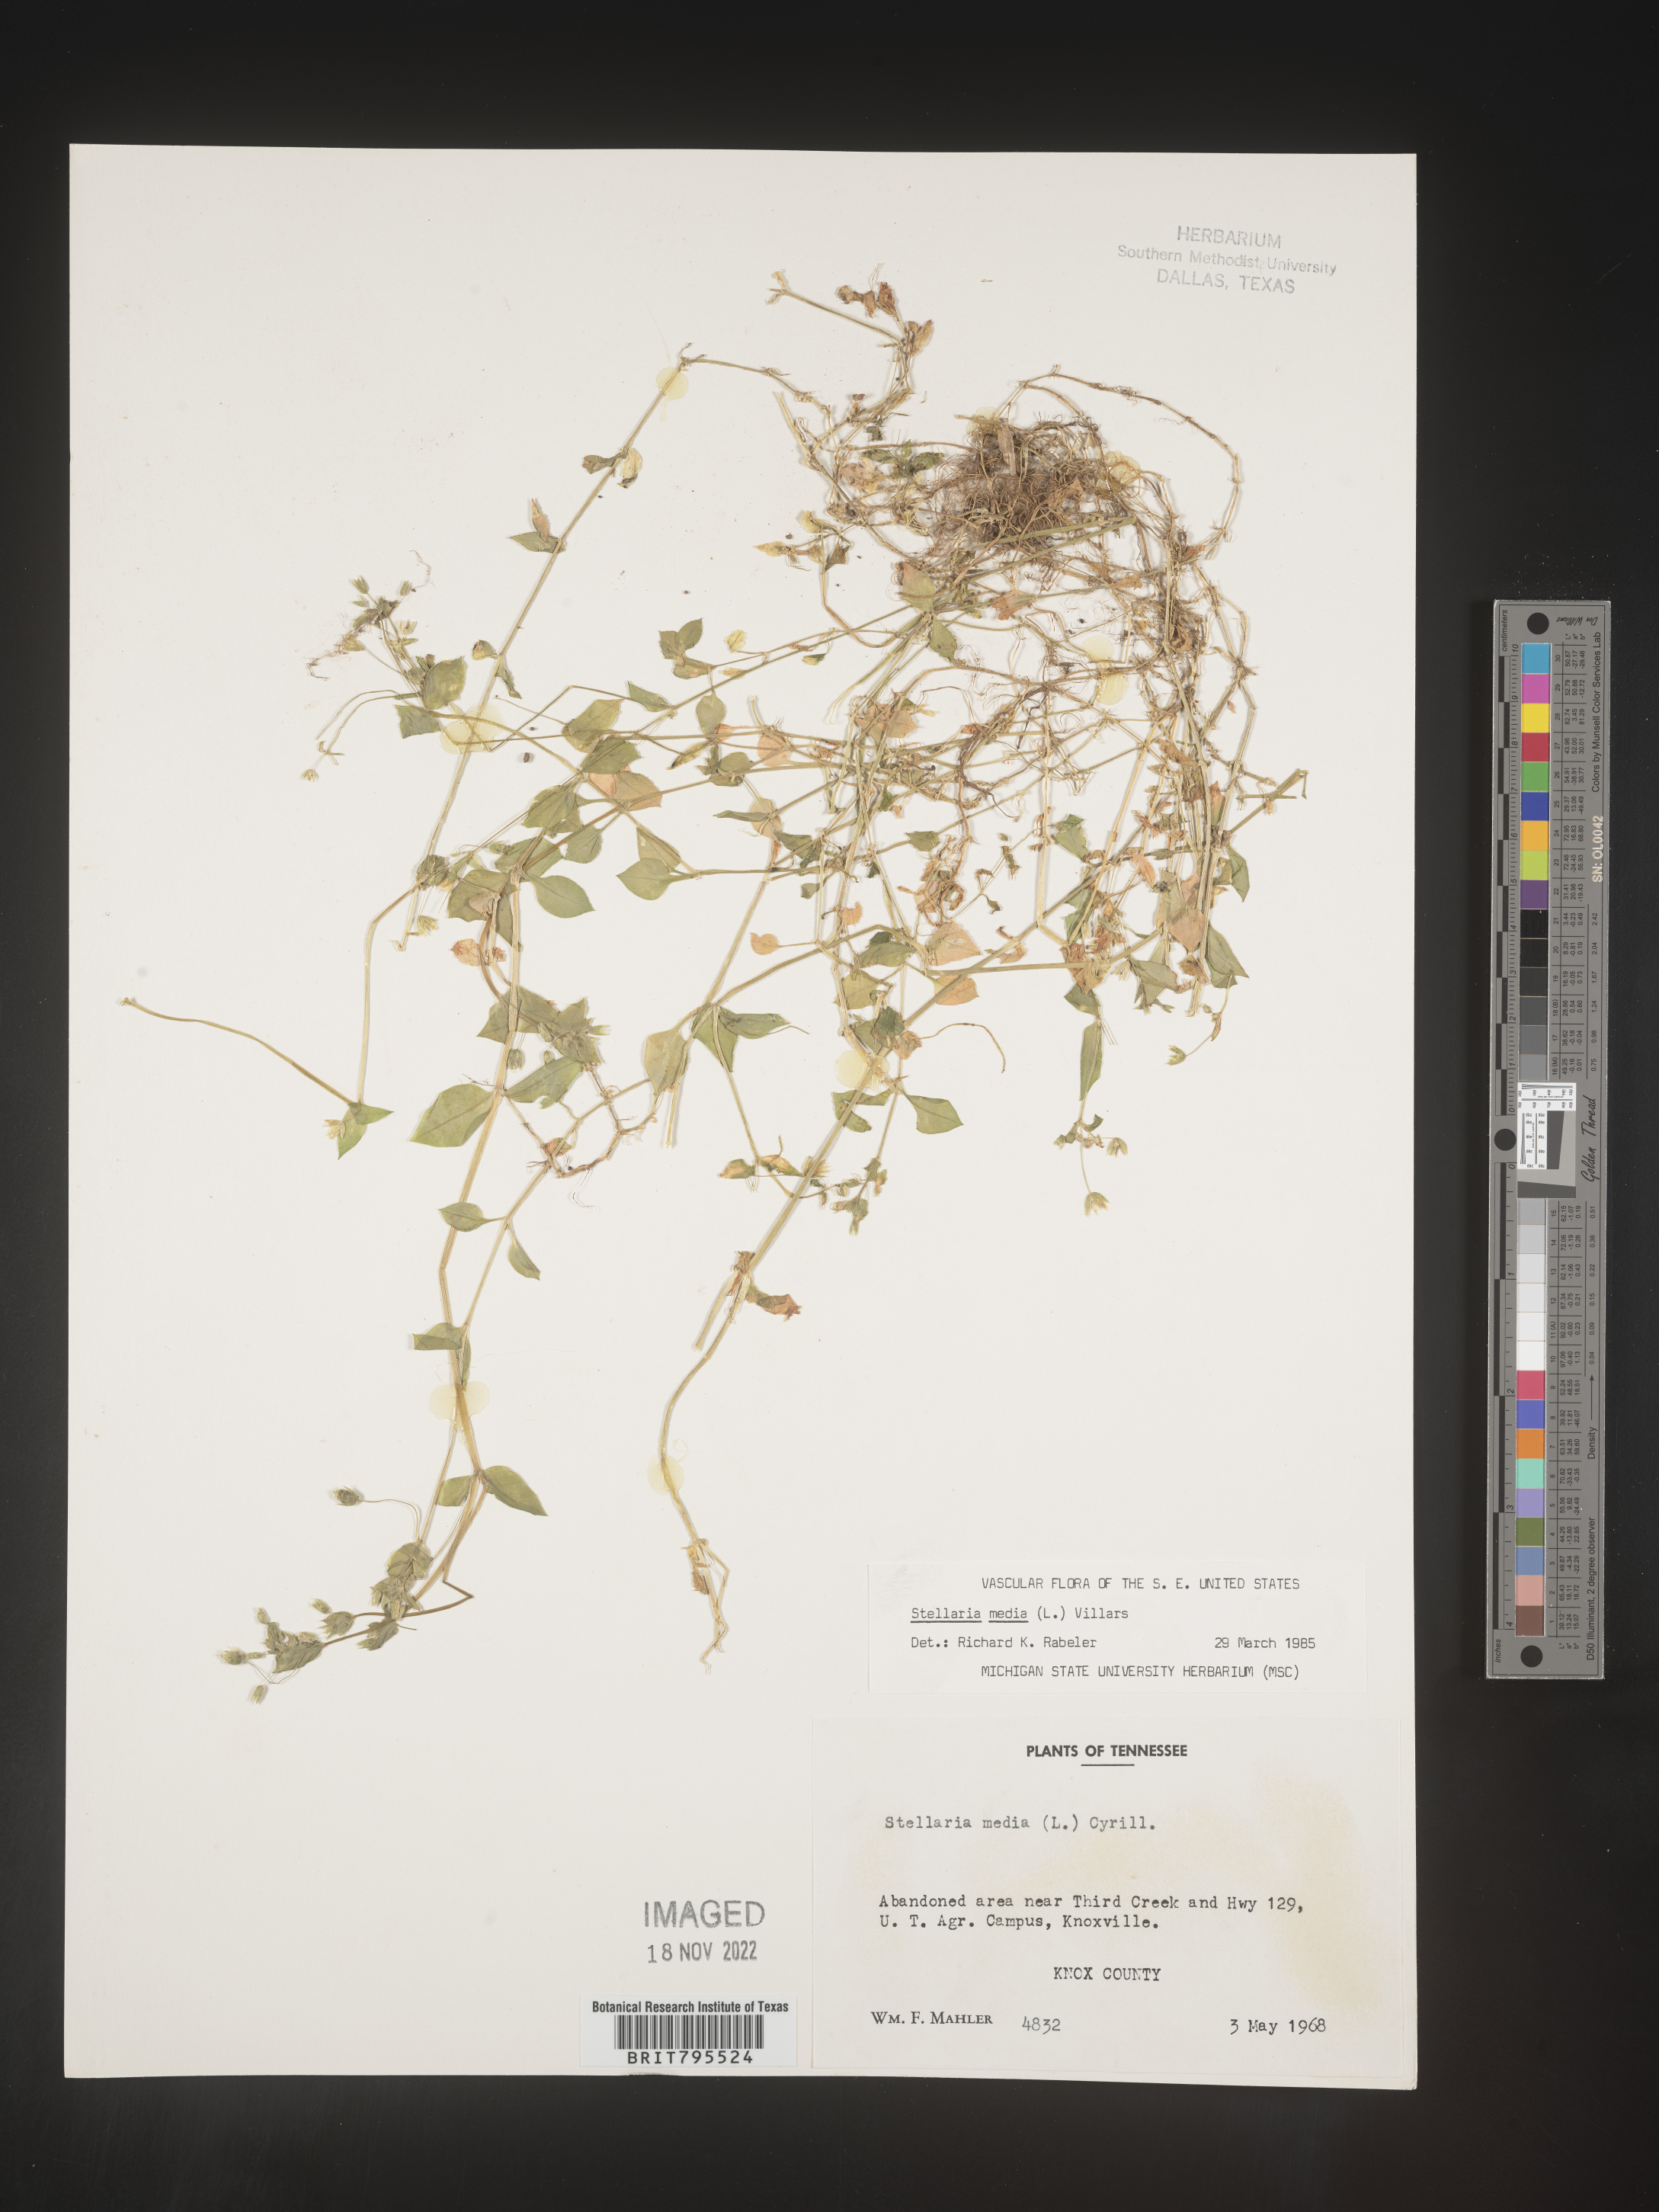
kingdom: Plantae
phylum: Tracheophyta
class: Magnoliopsida
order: Caryophyllales
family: Caryophyllaceae
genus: Stellaria
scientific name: Stellaria media
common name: Common chickweed
